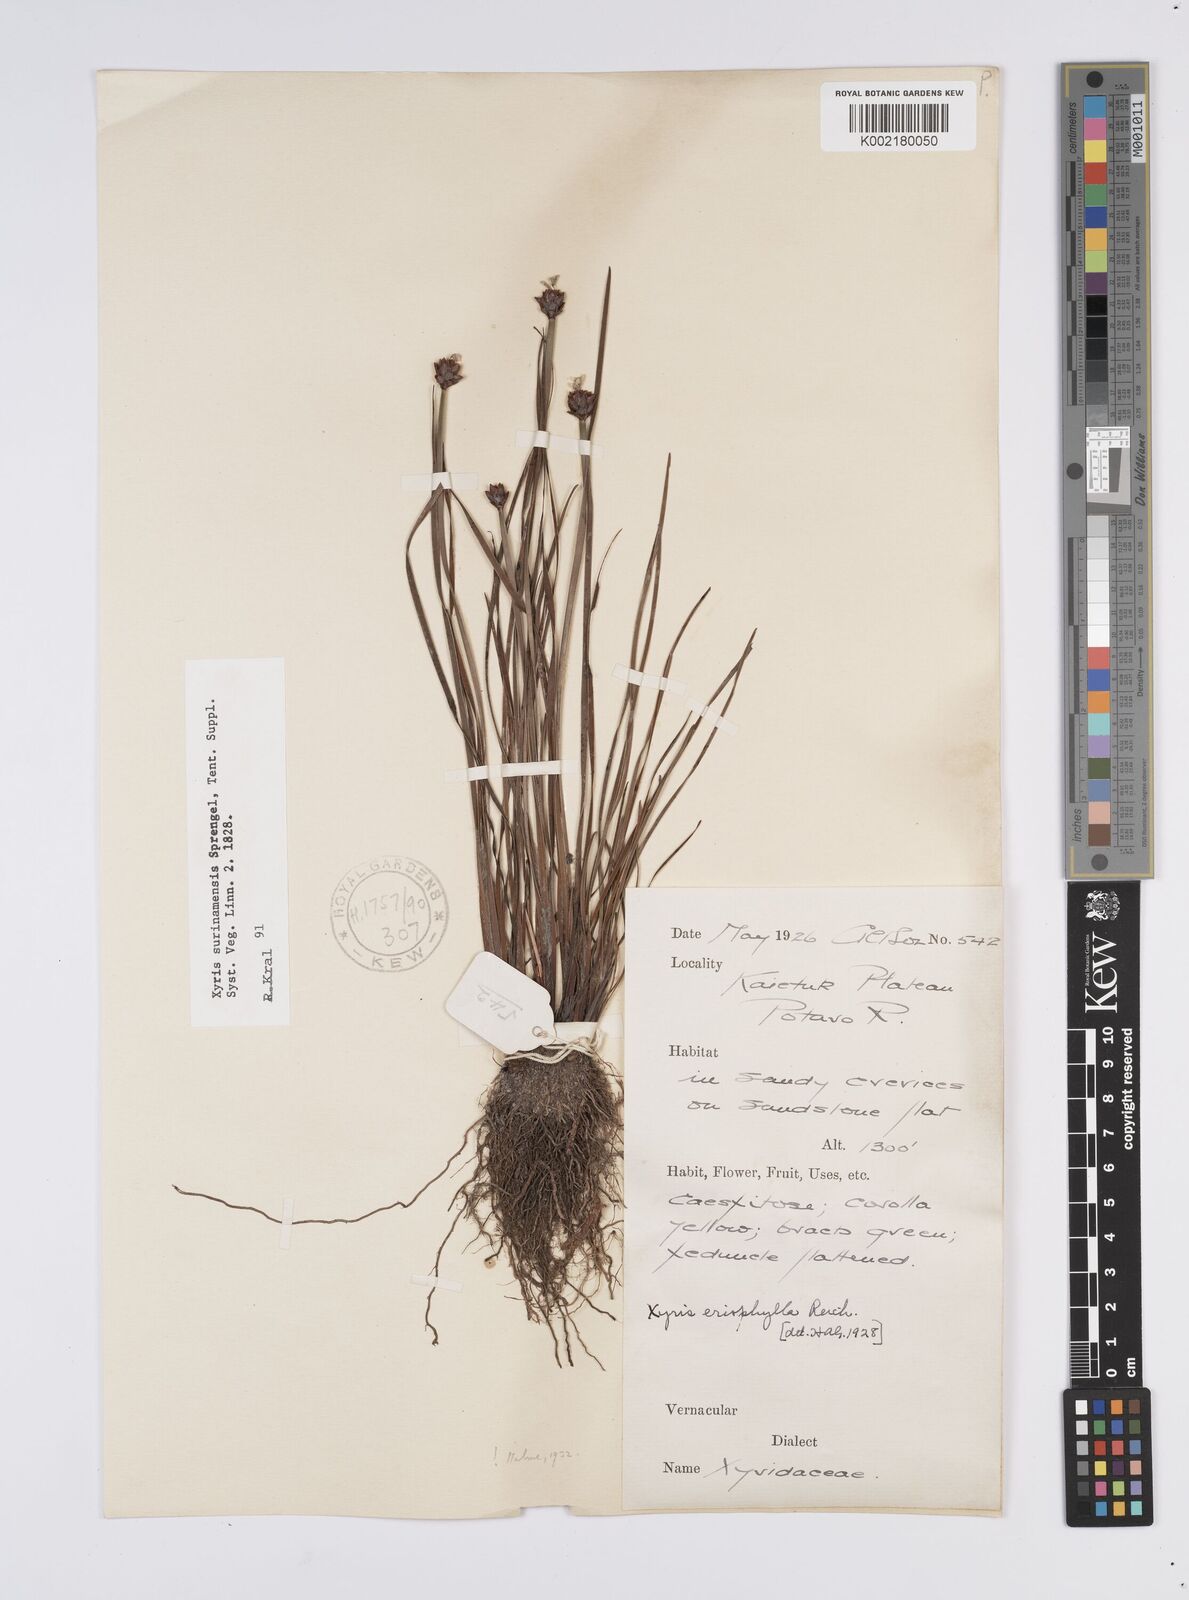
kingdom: Plantae
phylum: Tracheophyta
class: Liliopsida
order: Poales
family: Xyridaceae
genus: Xyris
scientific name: Xyris surinamensis
